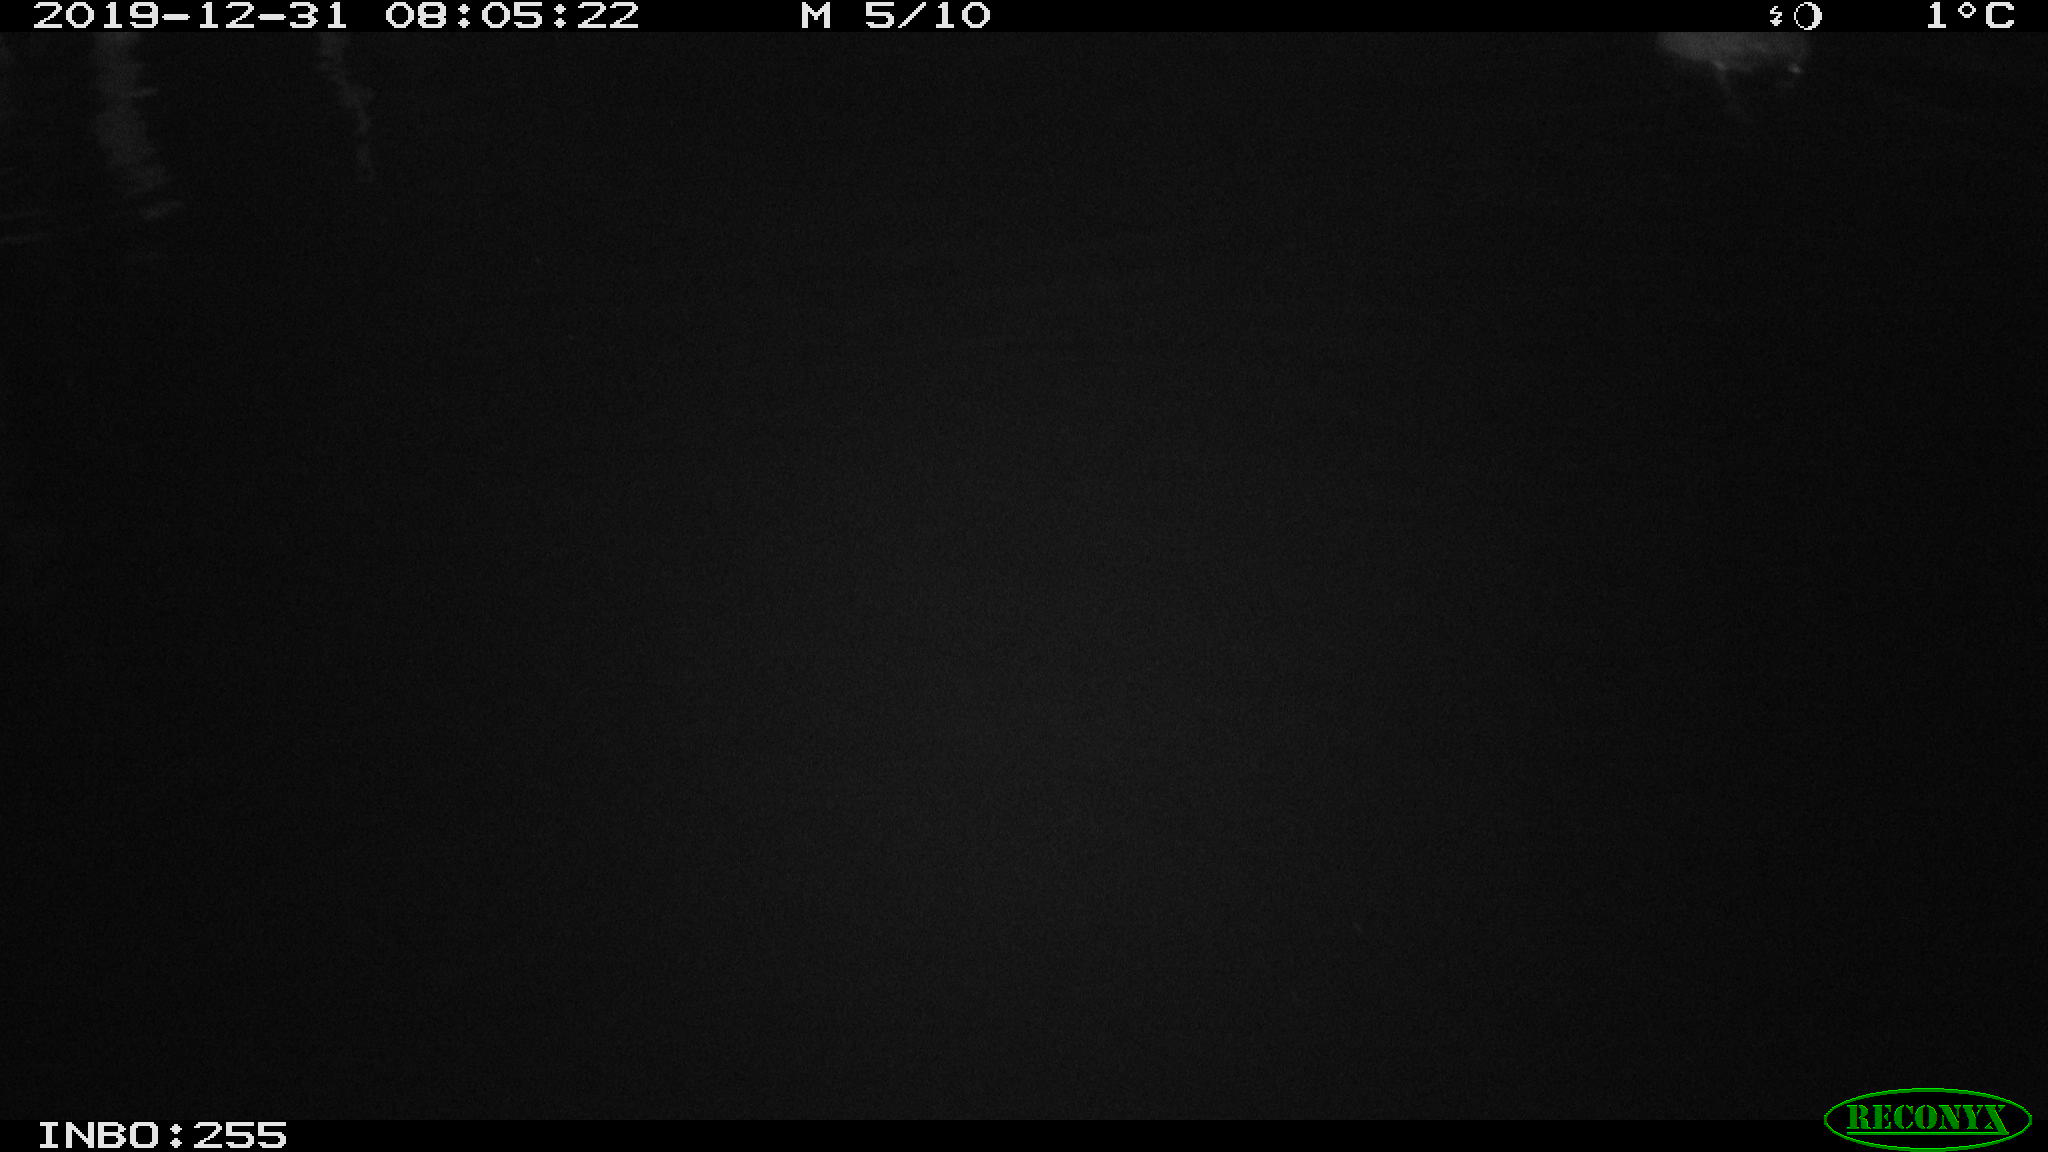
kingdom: Animalia
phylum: Chordata
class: Aves
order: Gruiformes
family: Rallidae
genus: Fulica
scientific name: Fulica atra
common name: Eurasian coot
